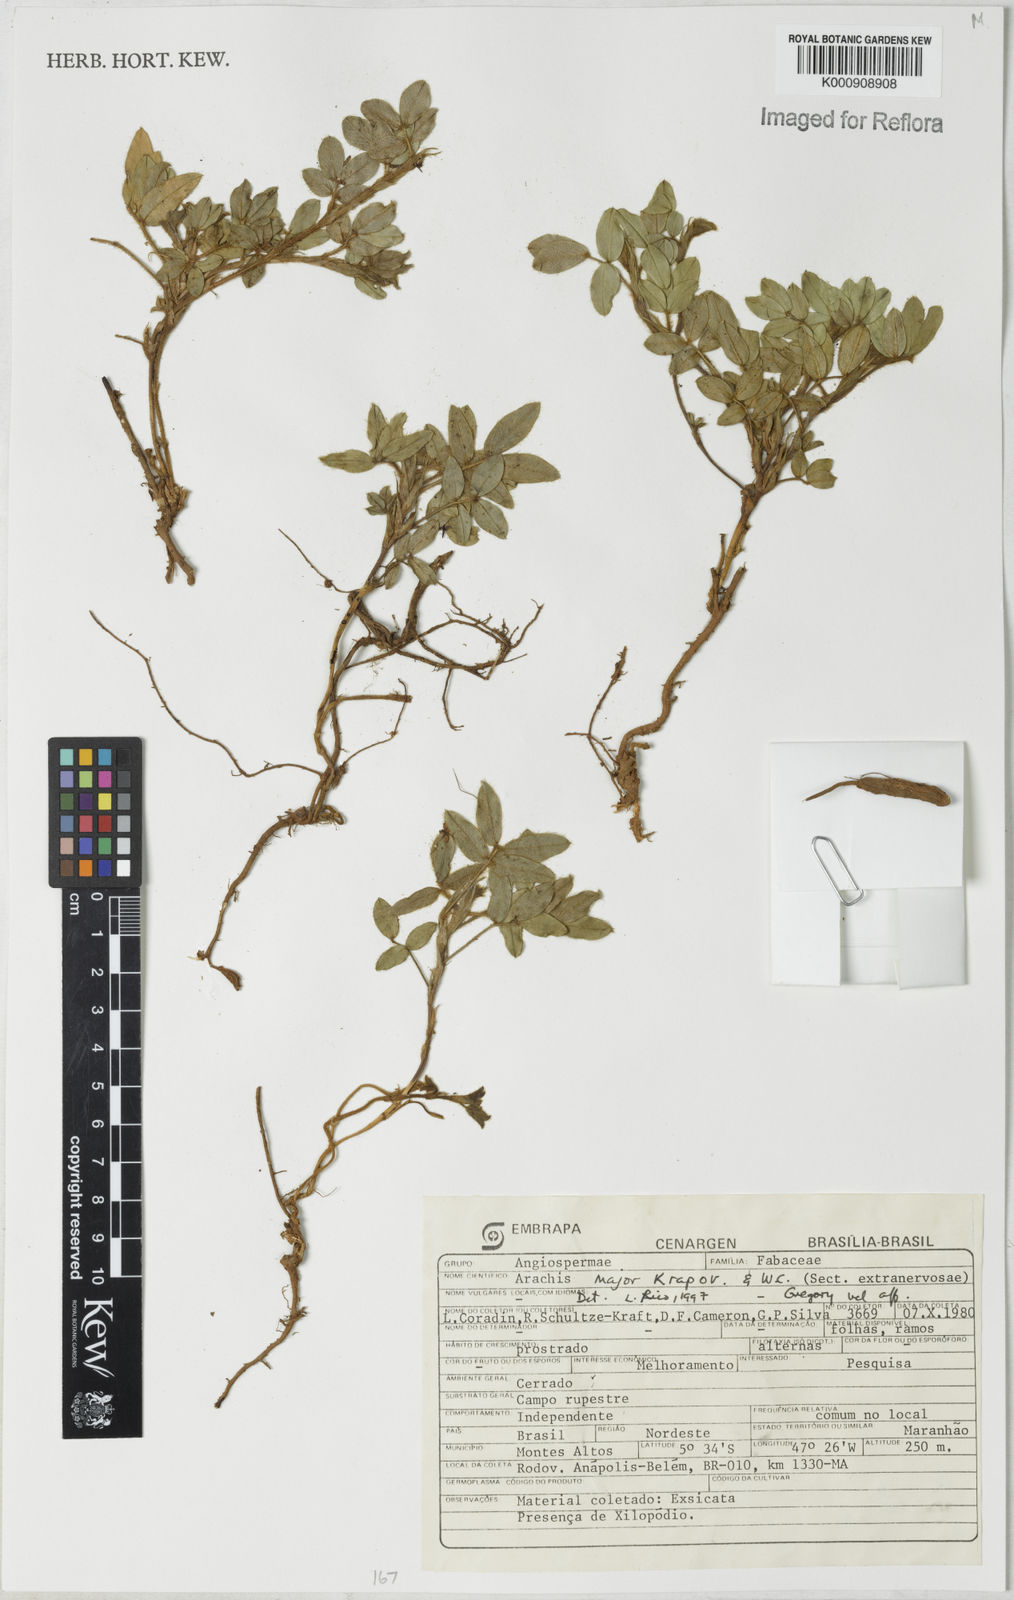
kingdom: Plantae
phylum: Tracheophyta
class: Magnoliopsida
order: Fabales
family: Fabaceae
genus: Arachis
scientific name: Arachis major
